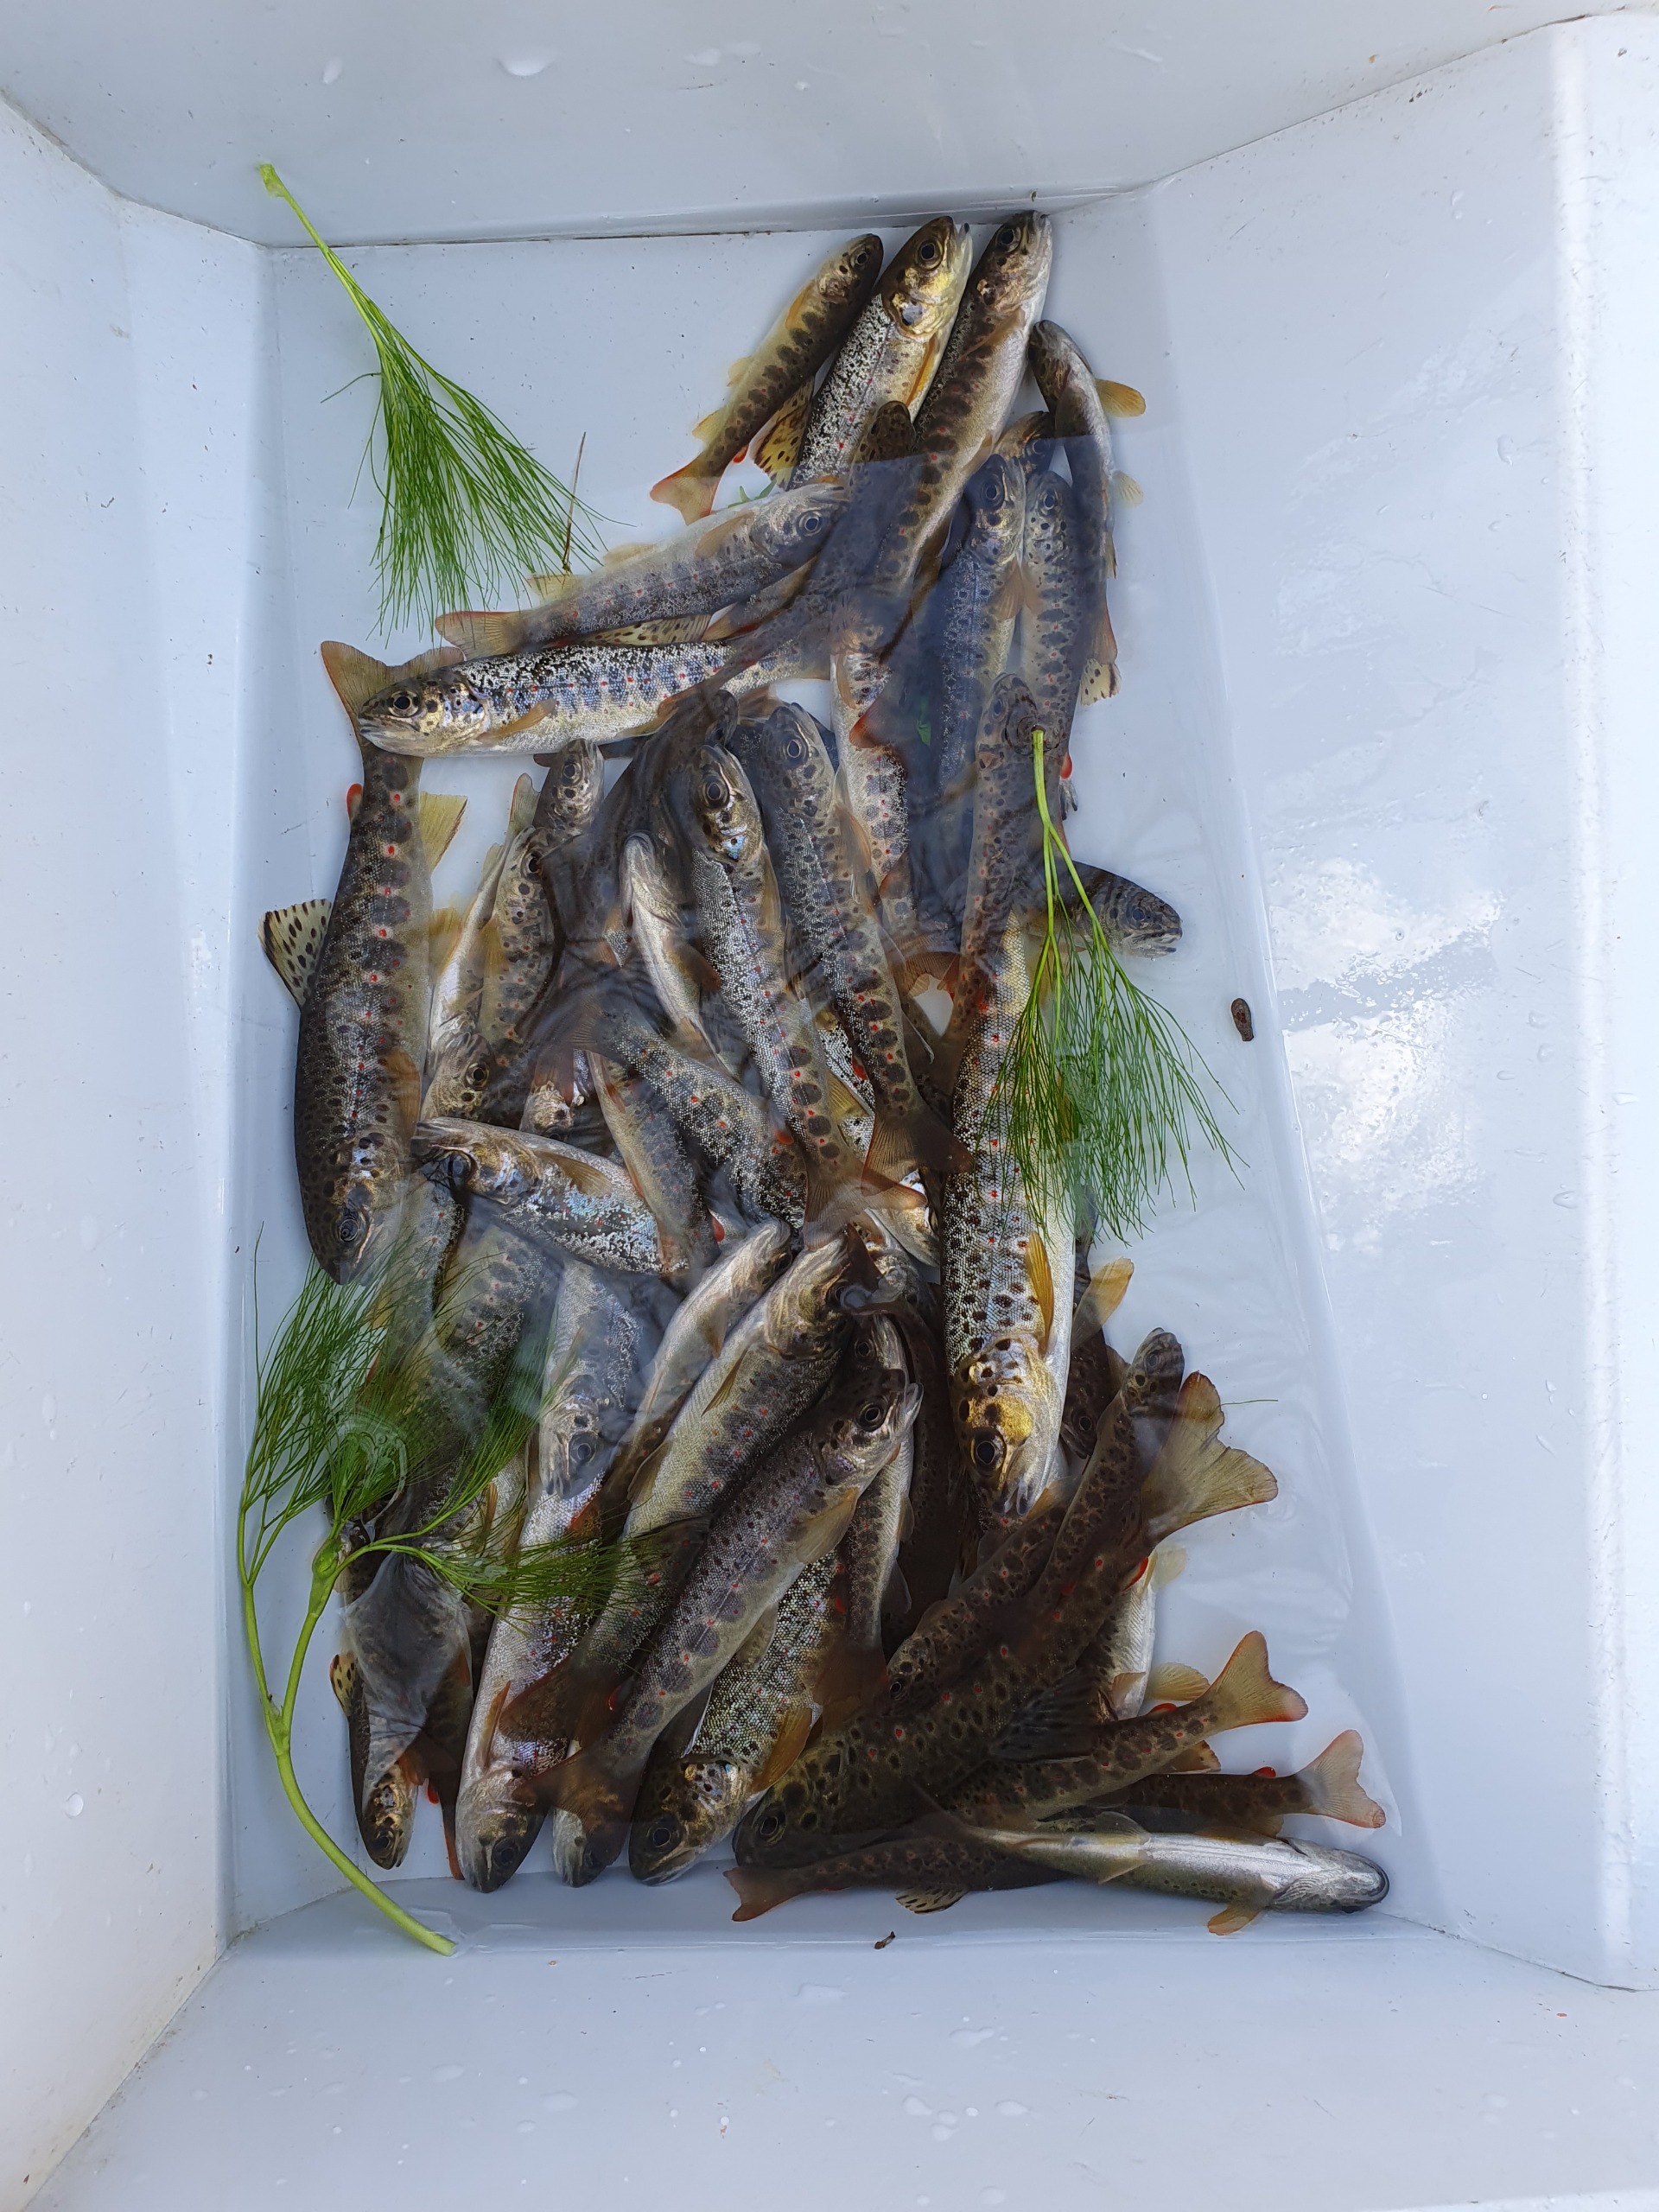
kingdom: Animalia
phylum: Chordata
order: Salmoniformes
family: Salmonidae
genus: Salmo
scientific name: Salmo trutta
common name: Ørred
